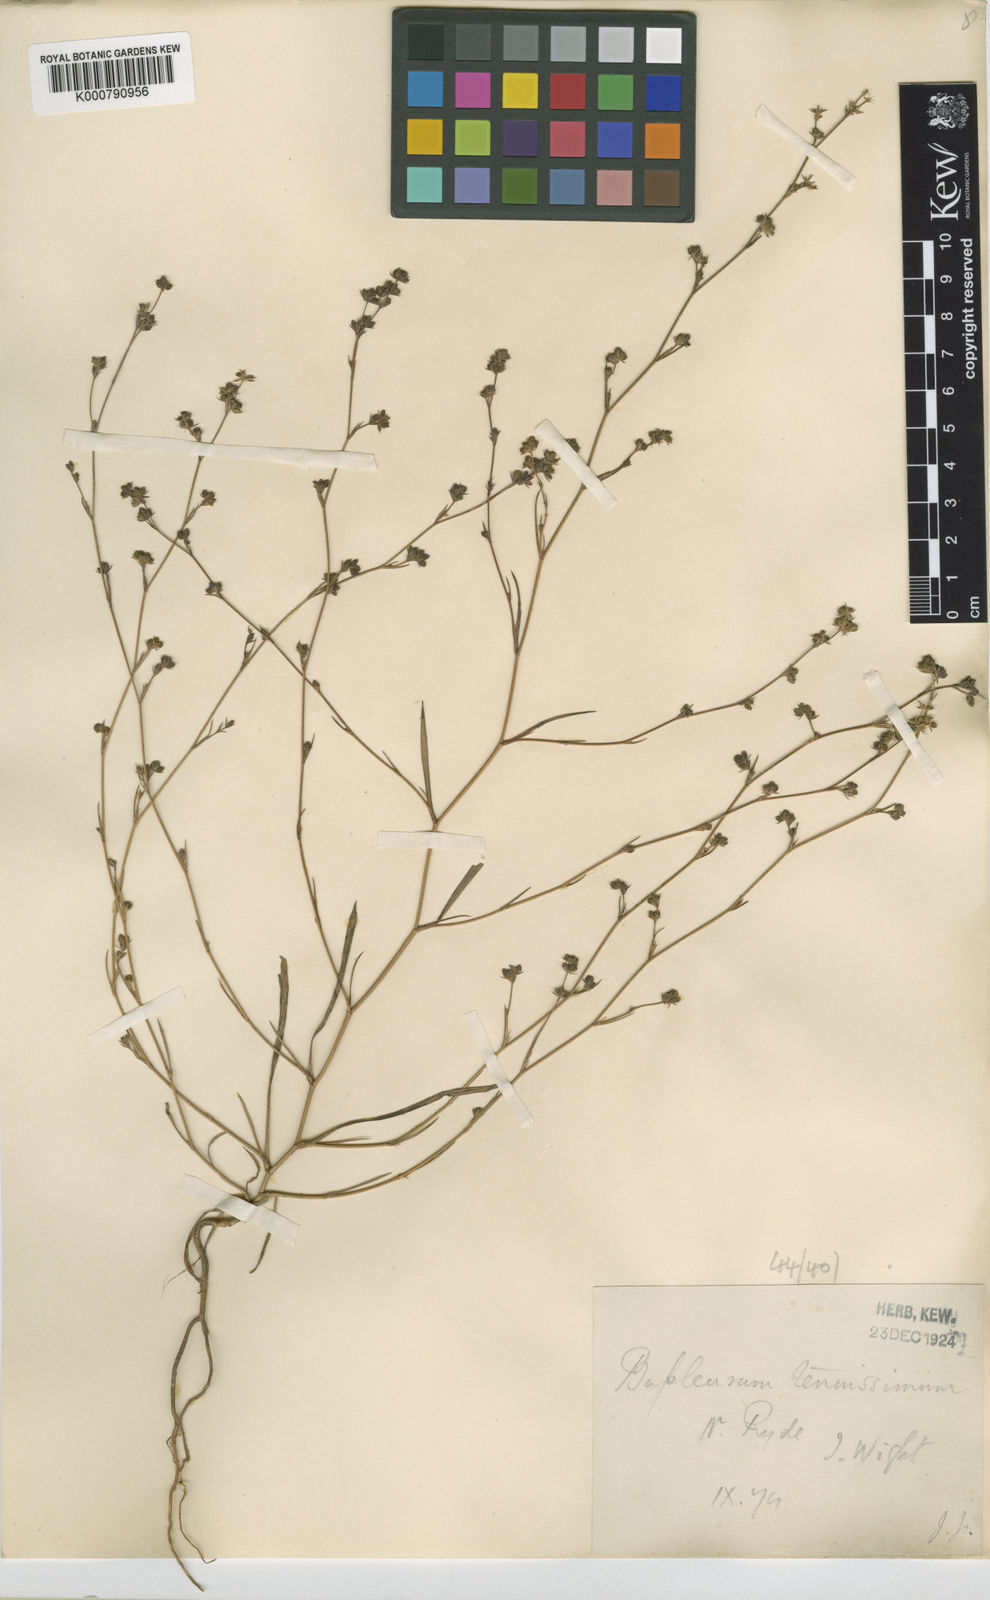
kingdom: Plantae
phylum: Tracheophyta
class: Magnoliopsida
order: Apiales
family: Apiaceae
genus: Bupleurum
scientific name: Bupleurum tenuissimum
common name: Slender hare's-ear
